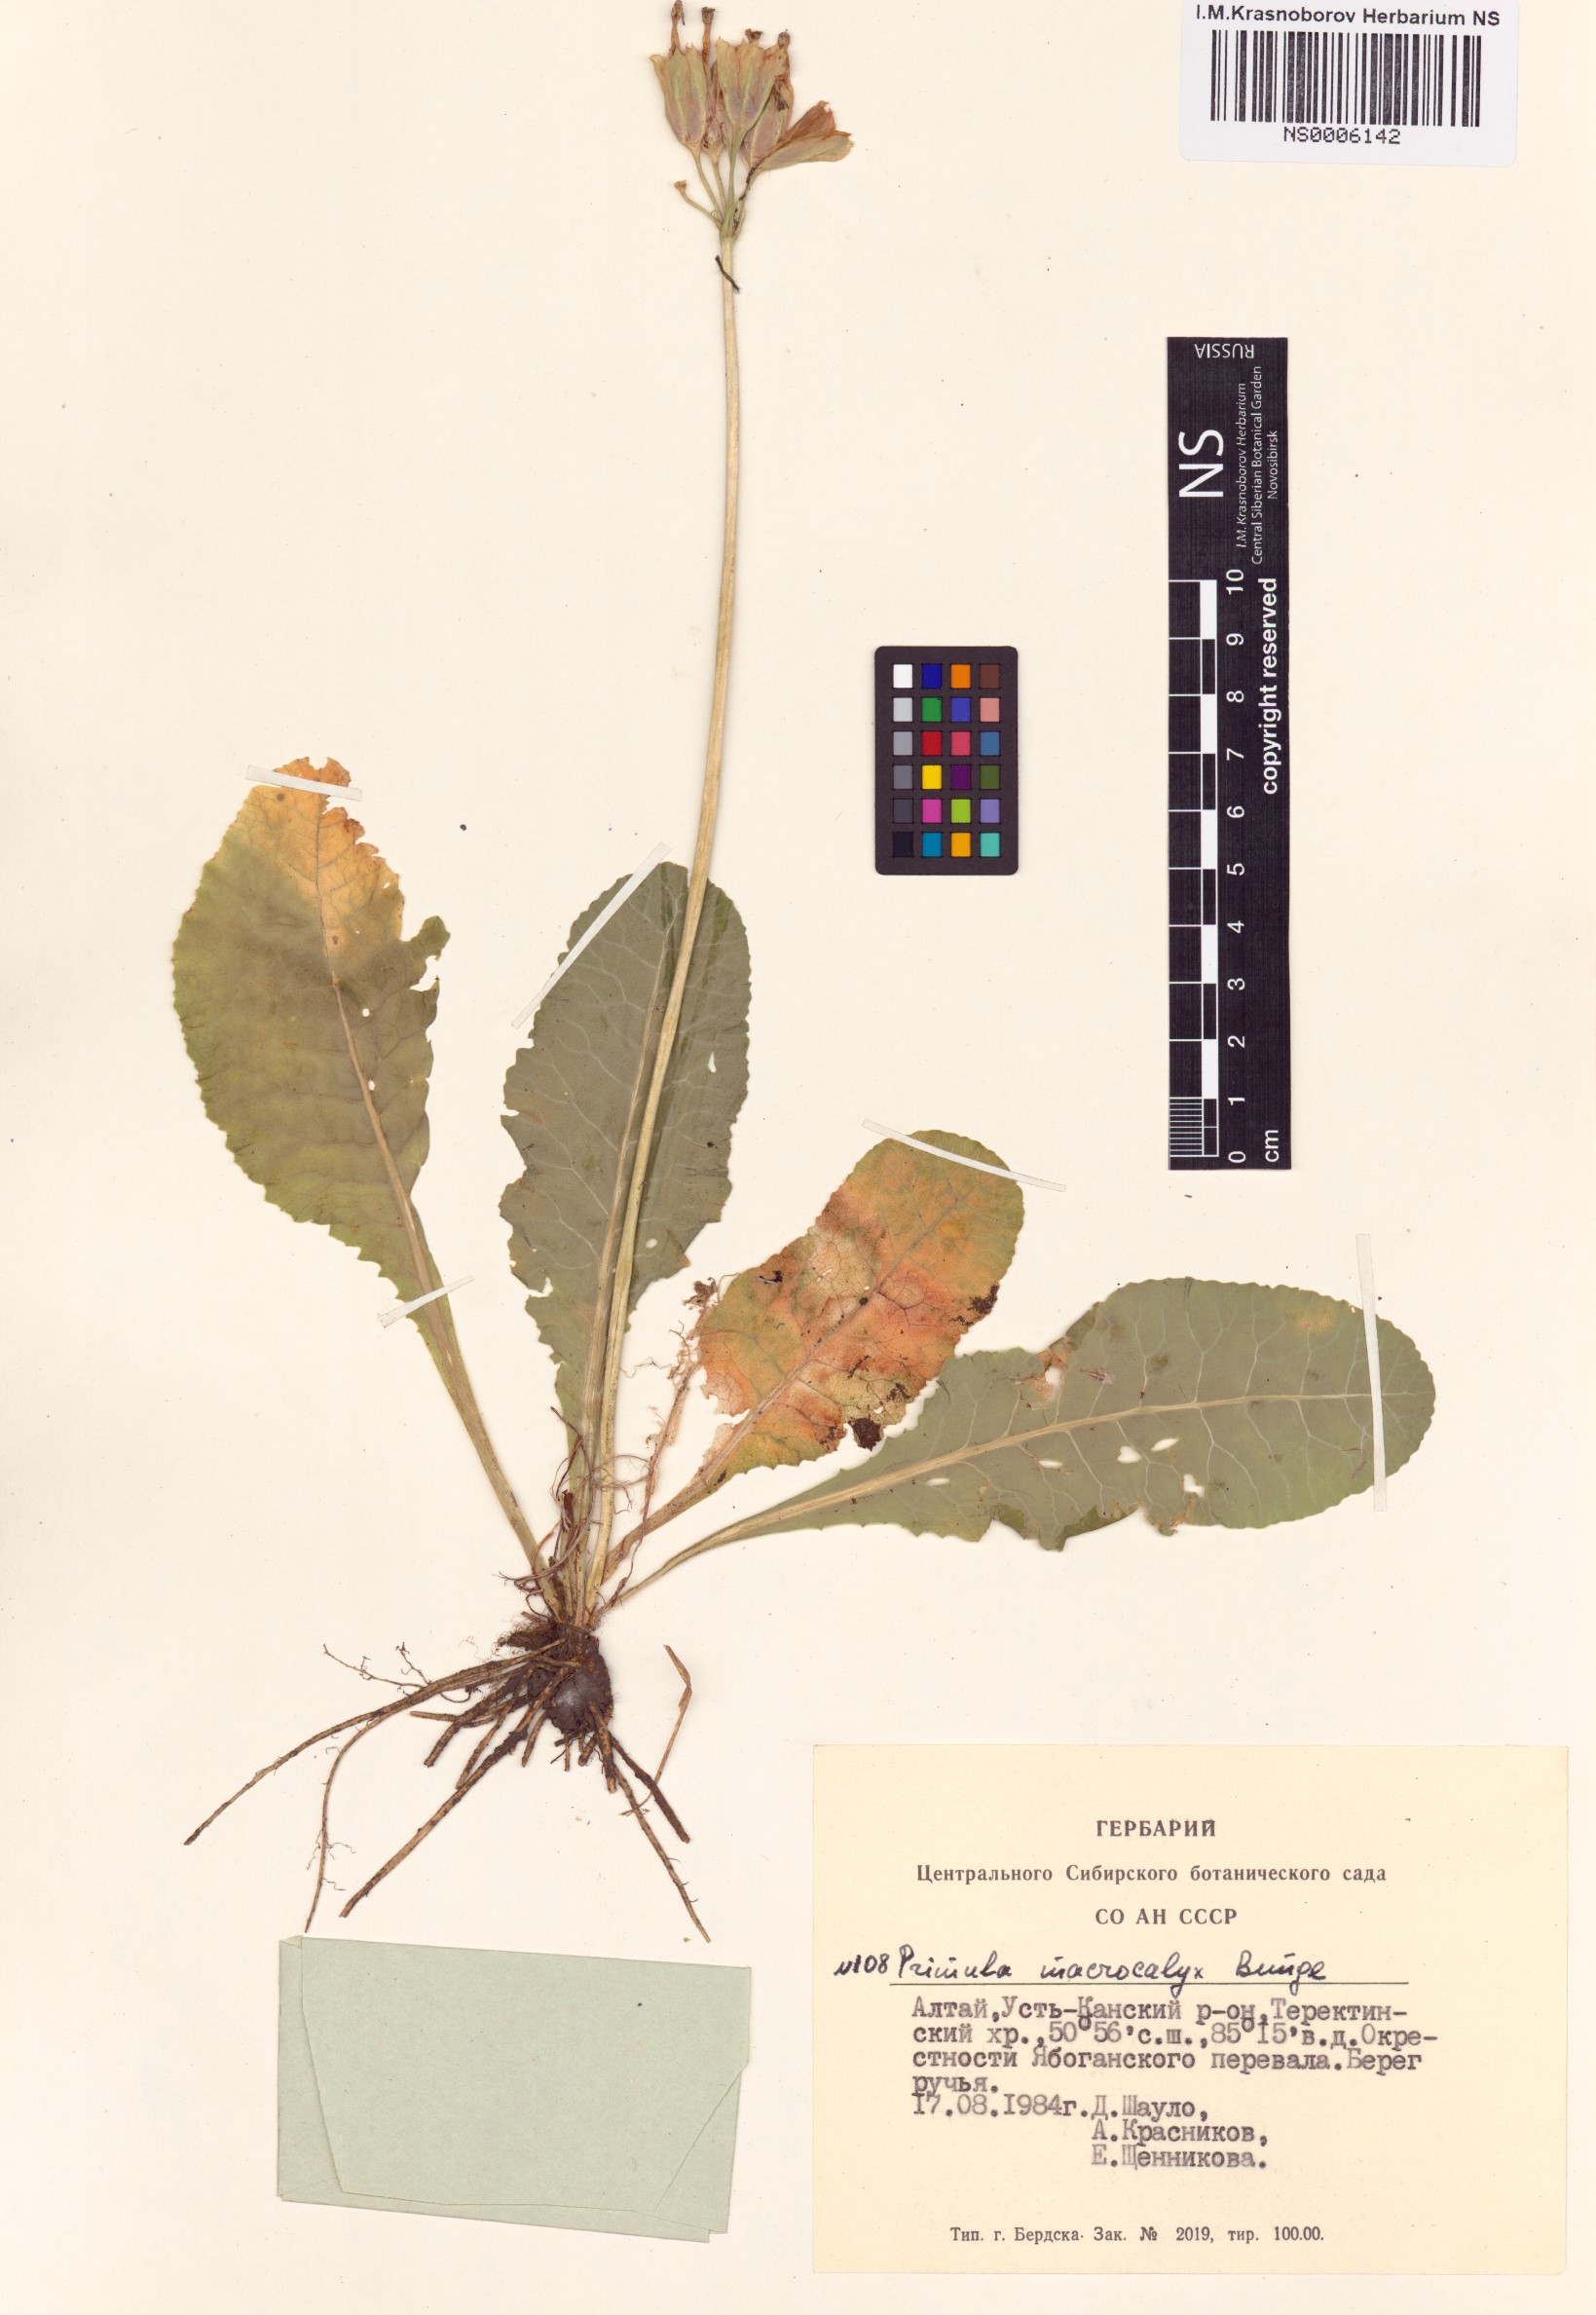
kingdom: Plantae
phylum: Tracheophyta
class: Magnoliopsida
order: Ericales
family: Primulaceae
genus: Primula
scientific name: Primula veris
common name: Cowslip
